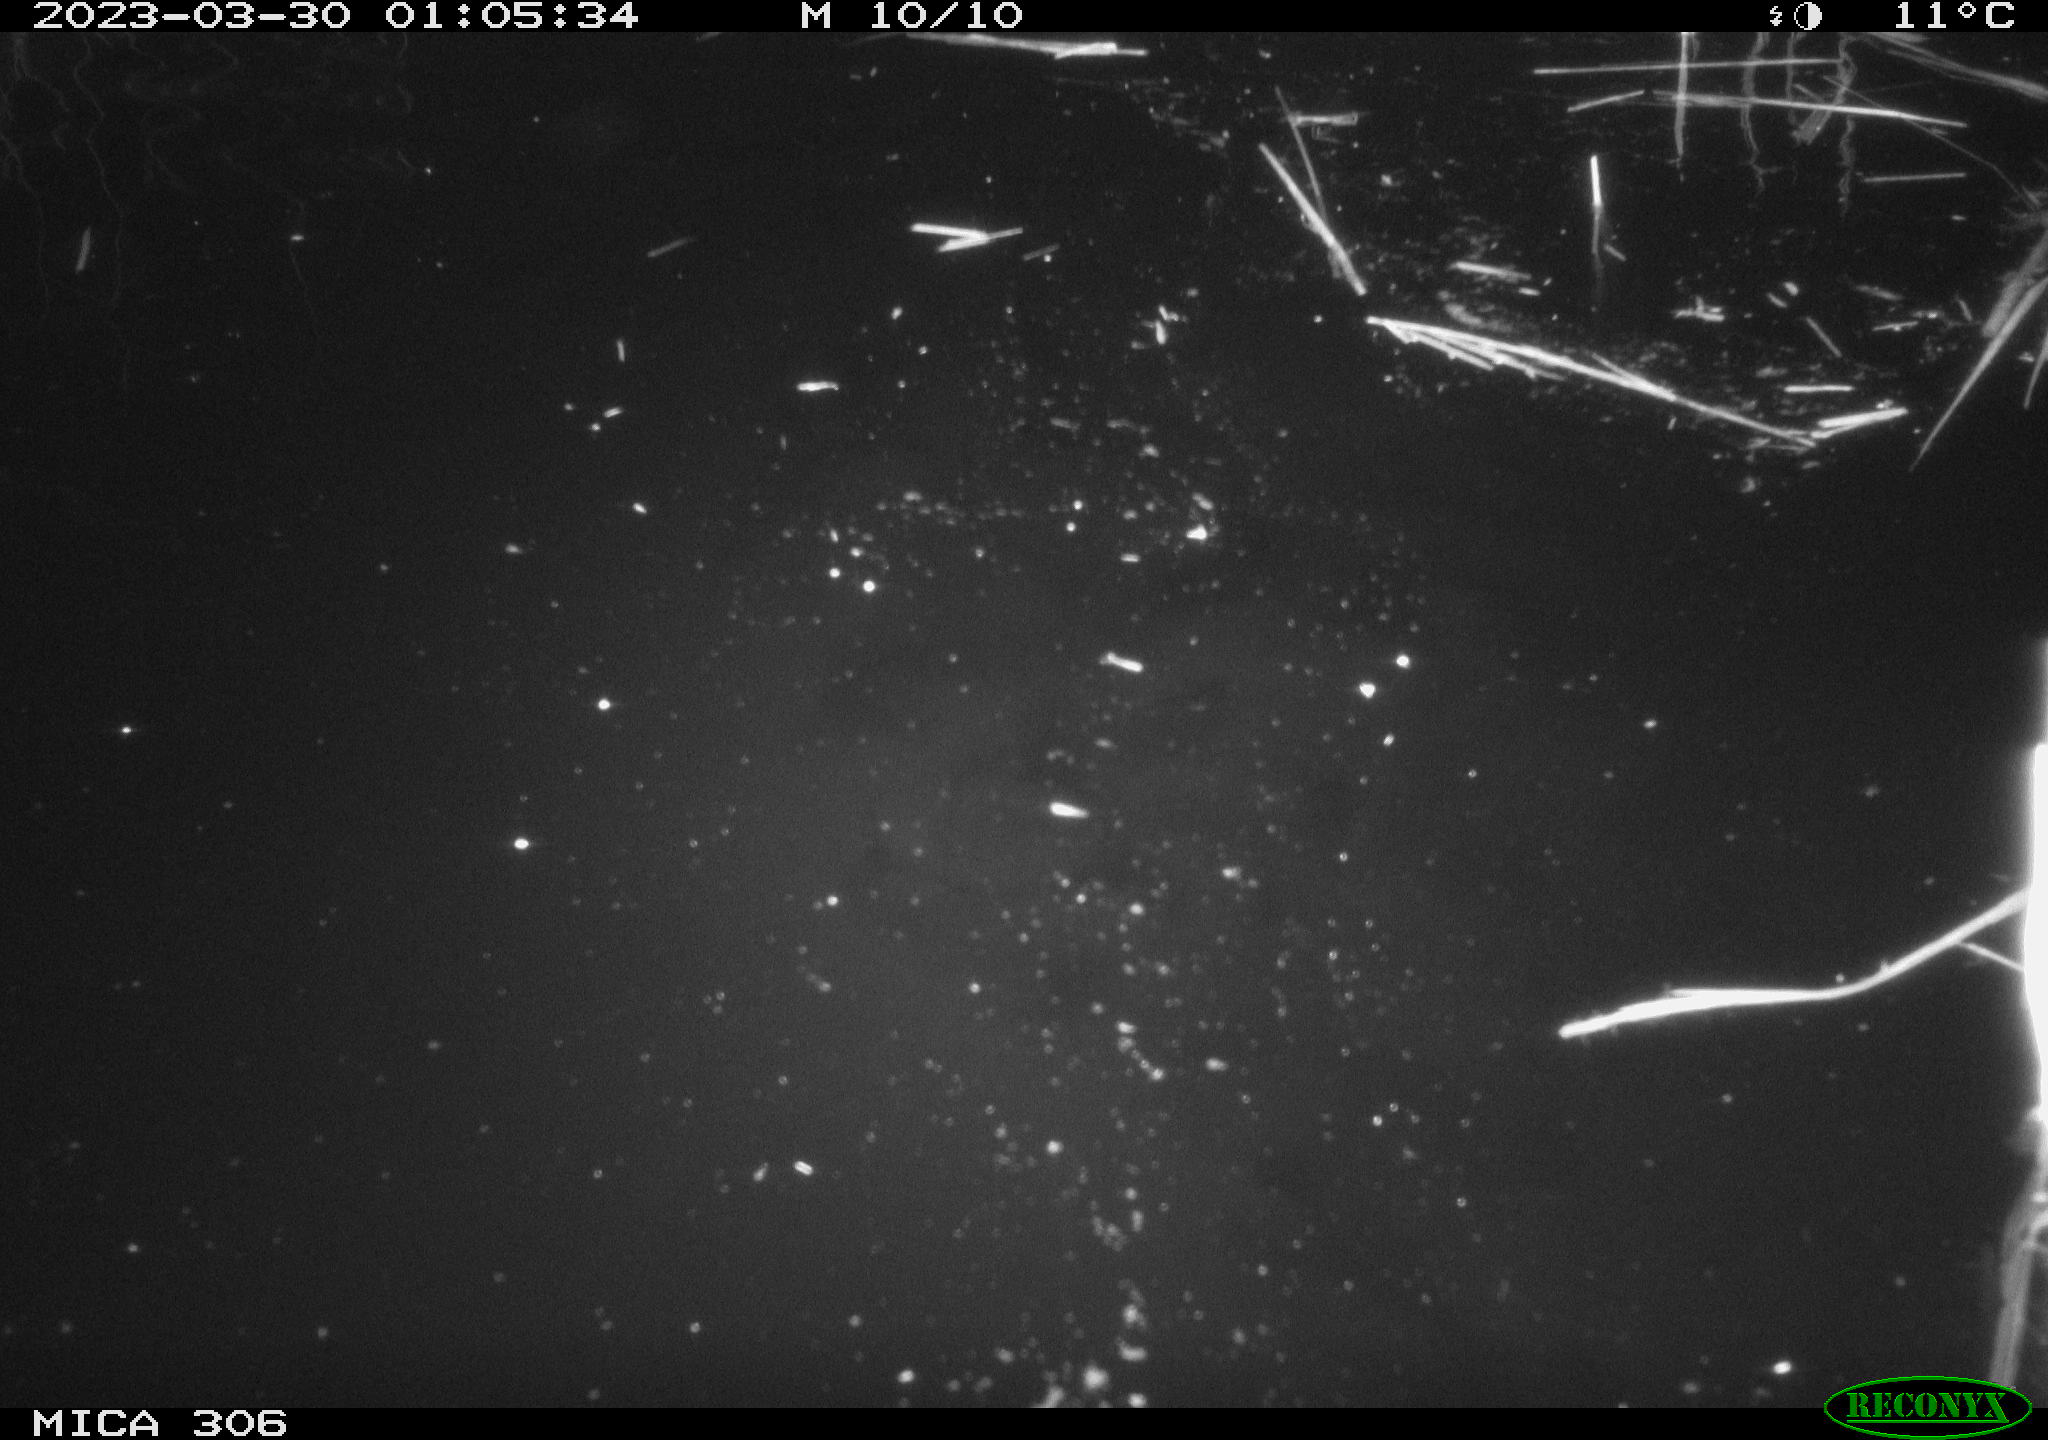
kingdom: Animalia
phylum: Chordata
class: Aves
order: Anseriformes
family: Anatidae
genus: Anas
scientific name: Anas
